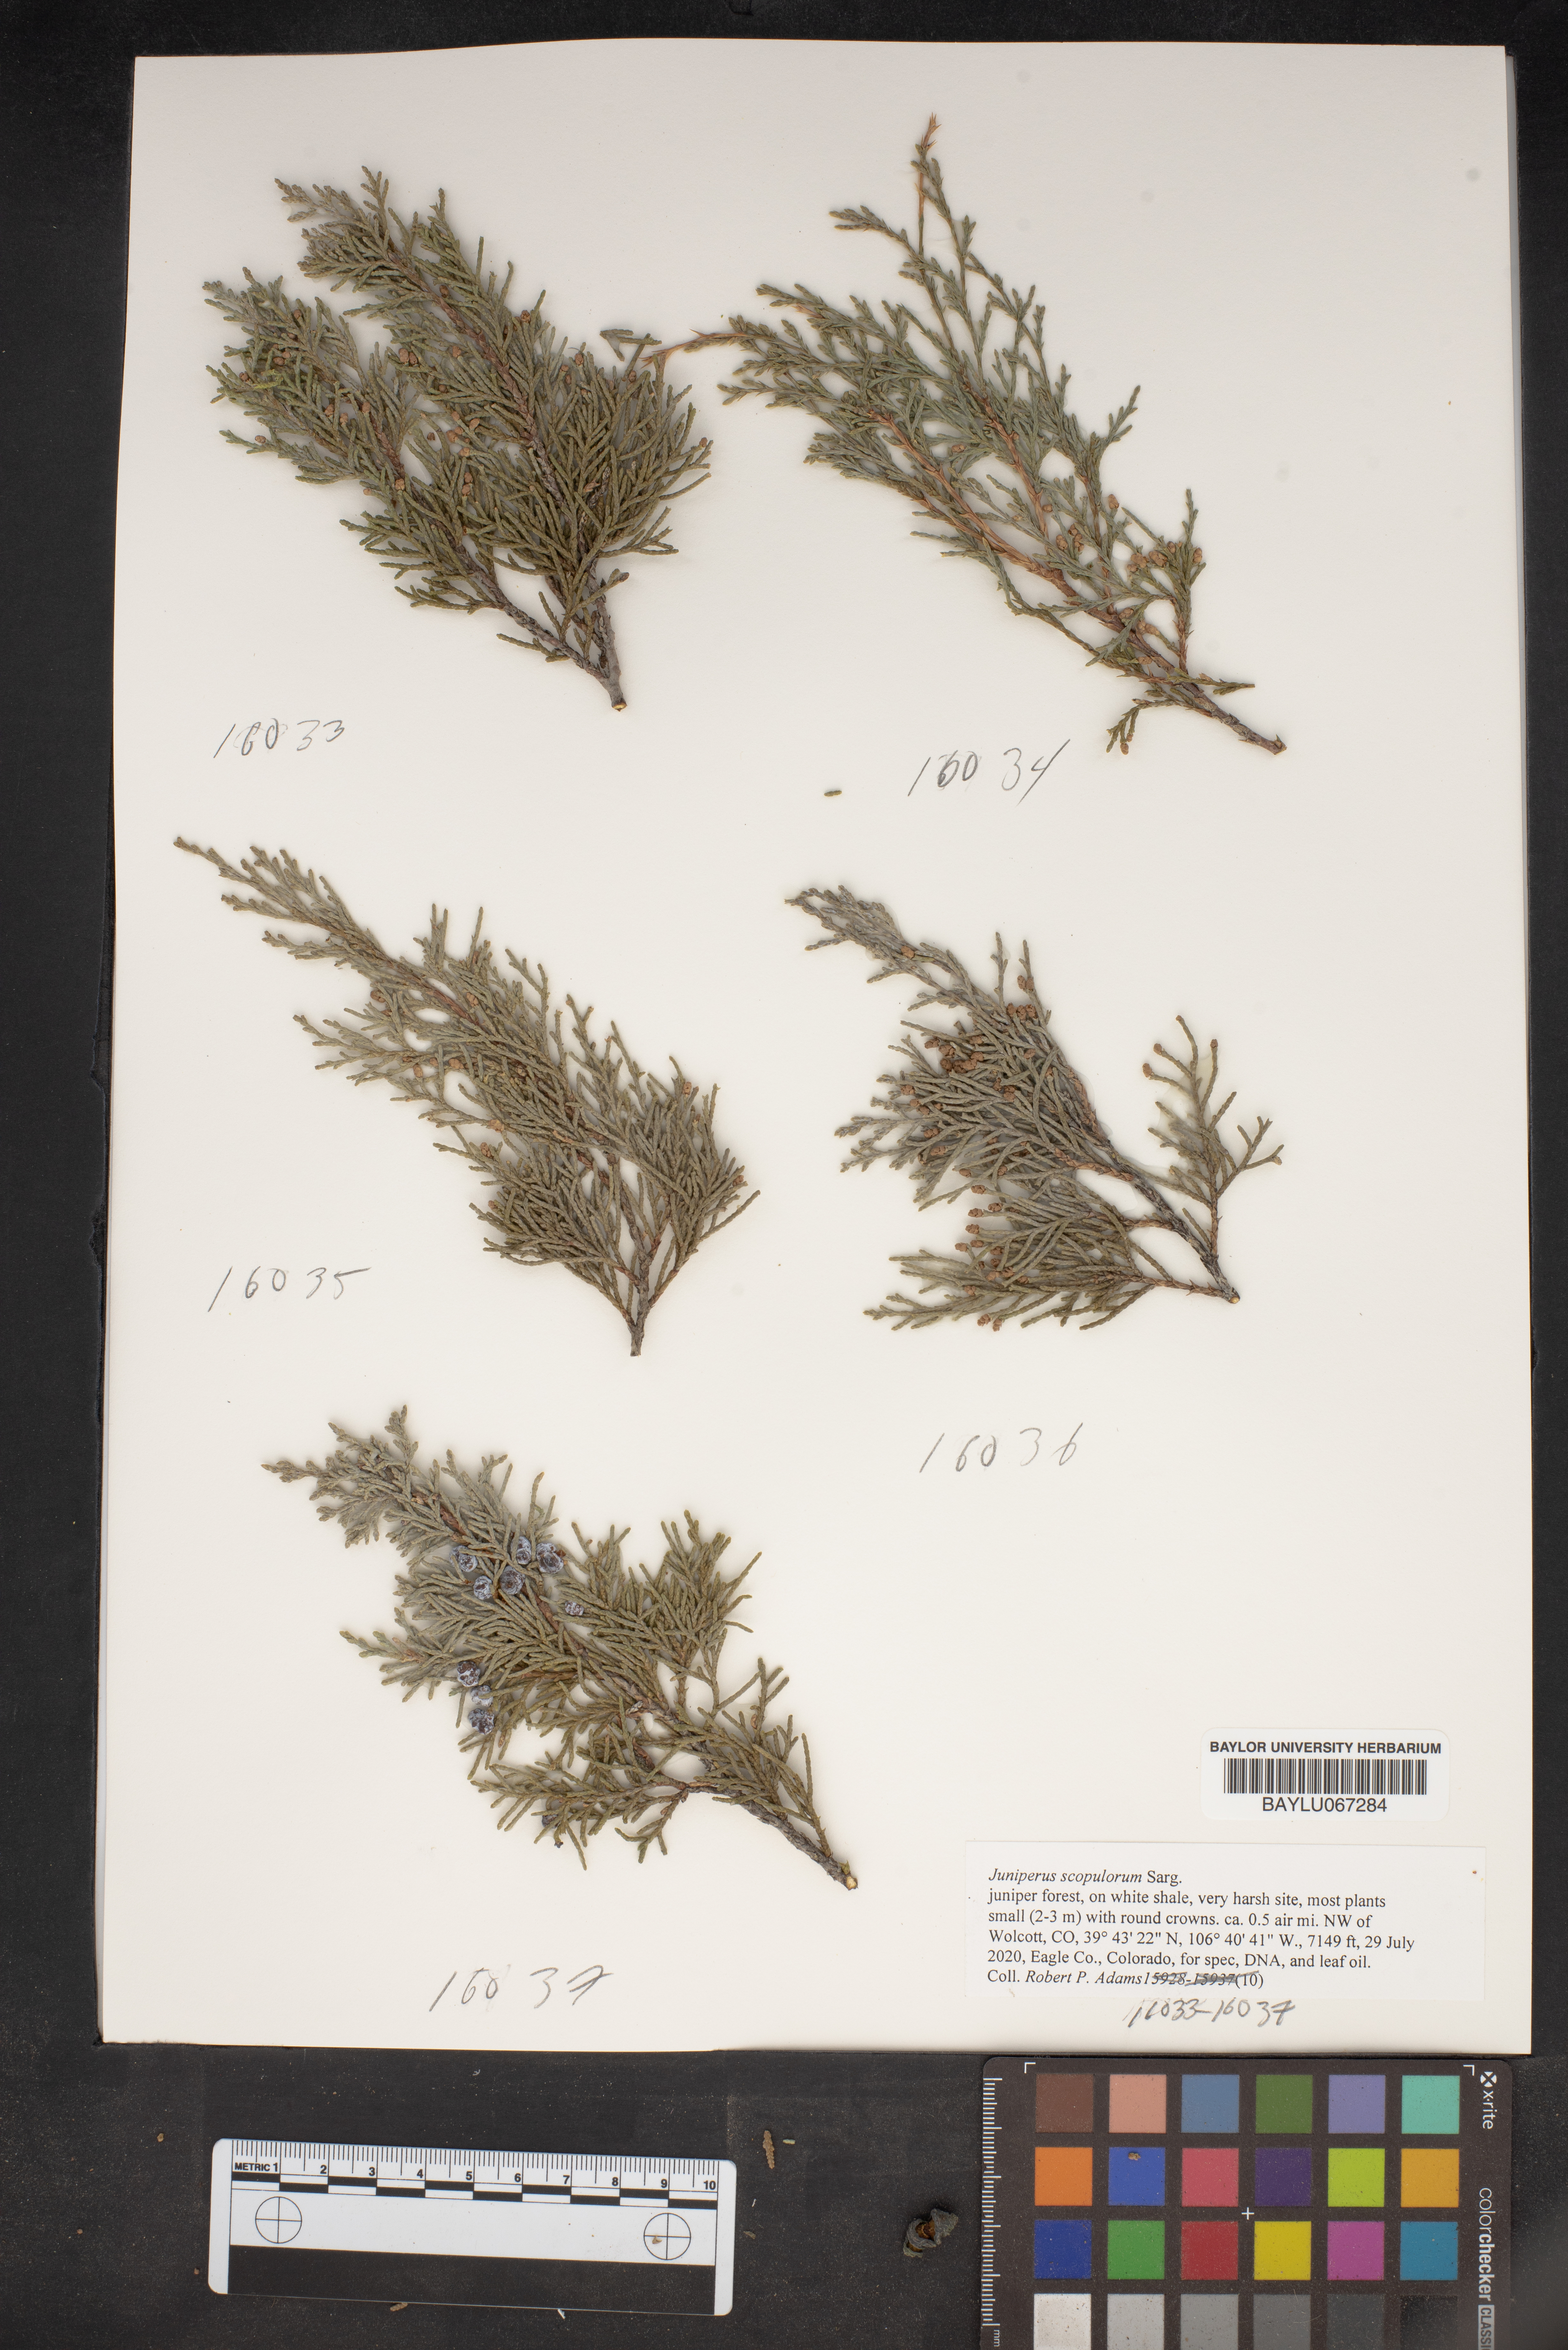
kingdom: Plantae
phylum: Tracheophyta
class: Pinopsida
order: Pinales
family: Cupressaceae
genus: Juniperus
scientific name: Juniperus scopulorum
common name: Rocky mountain juniper
